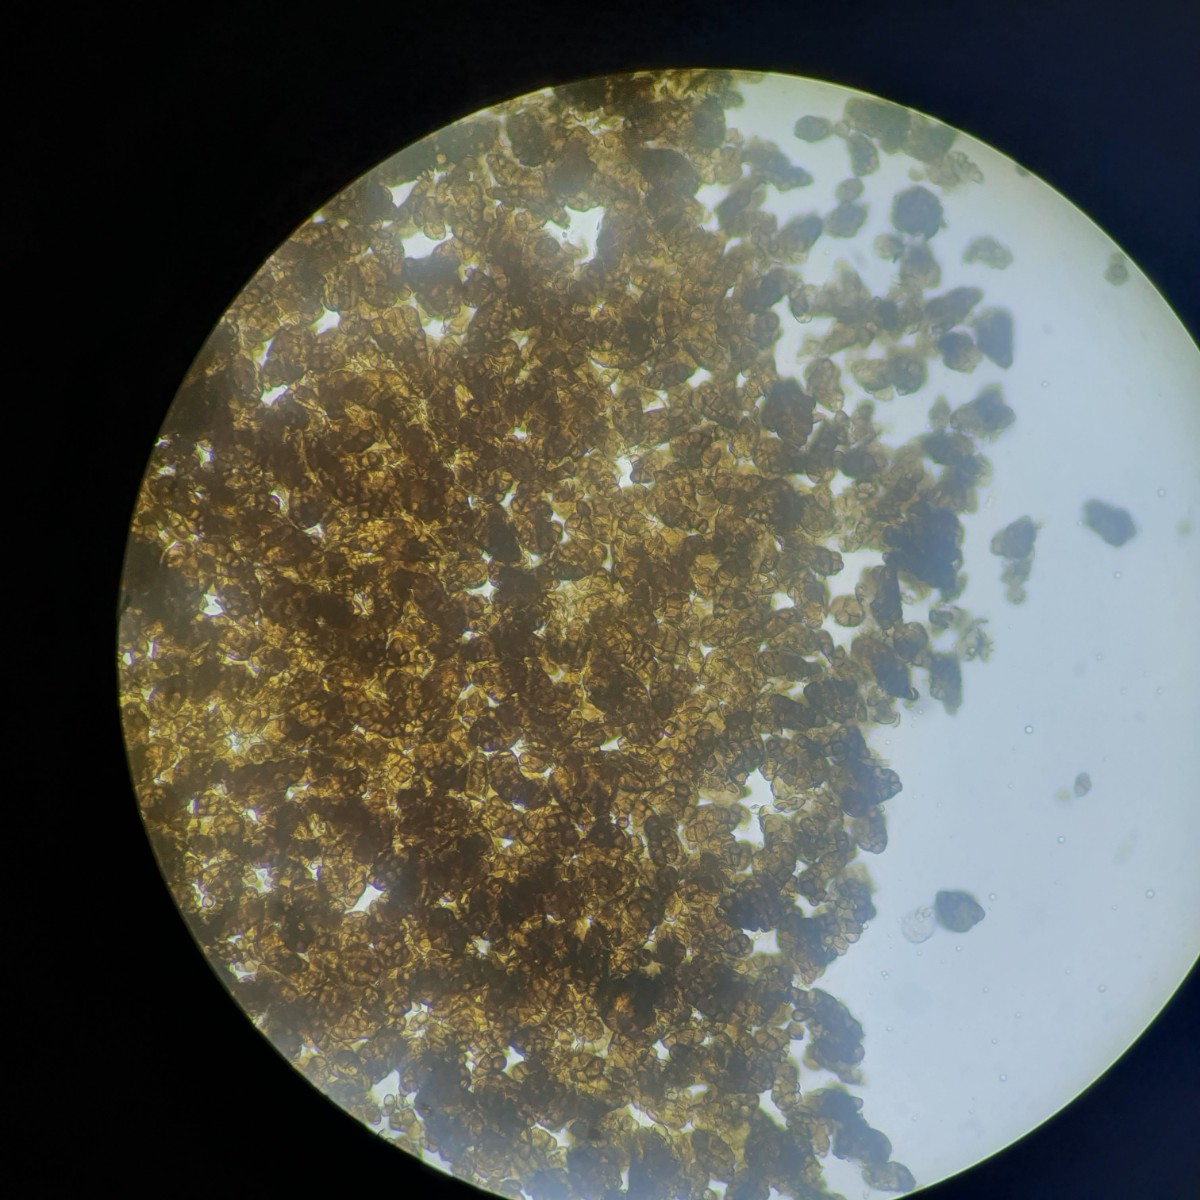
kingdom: Fungi
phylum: Ascomycota
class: Leotiomycetes
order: Helotiales
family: Mollisiaceae
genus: Trimmatostroma
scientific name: Trimmatostroma scutellare
